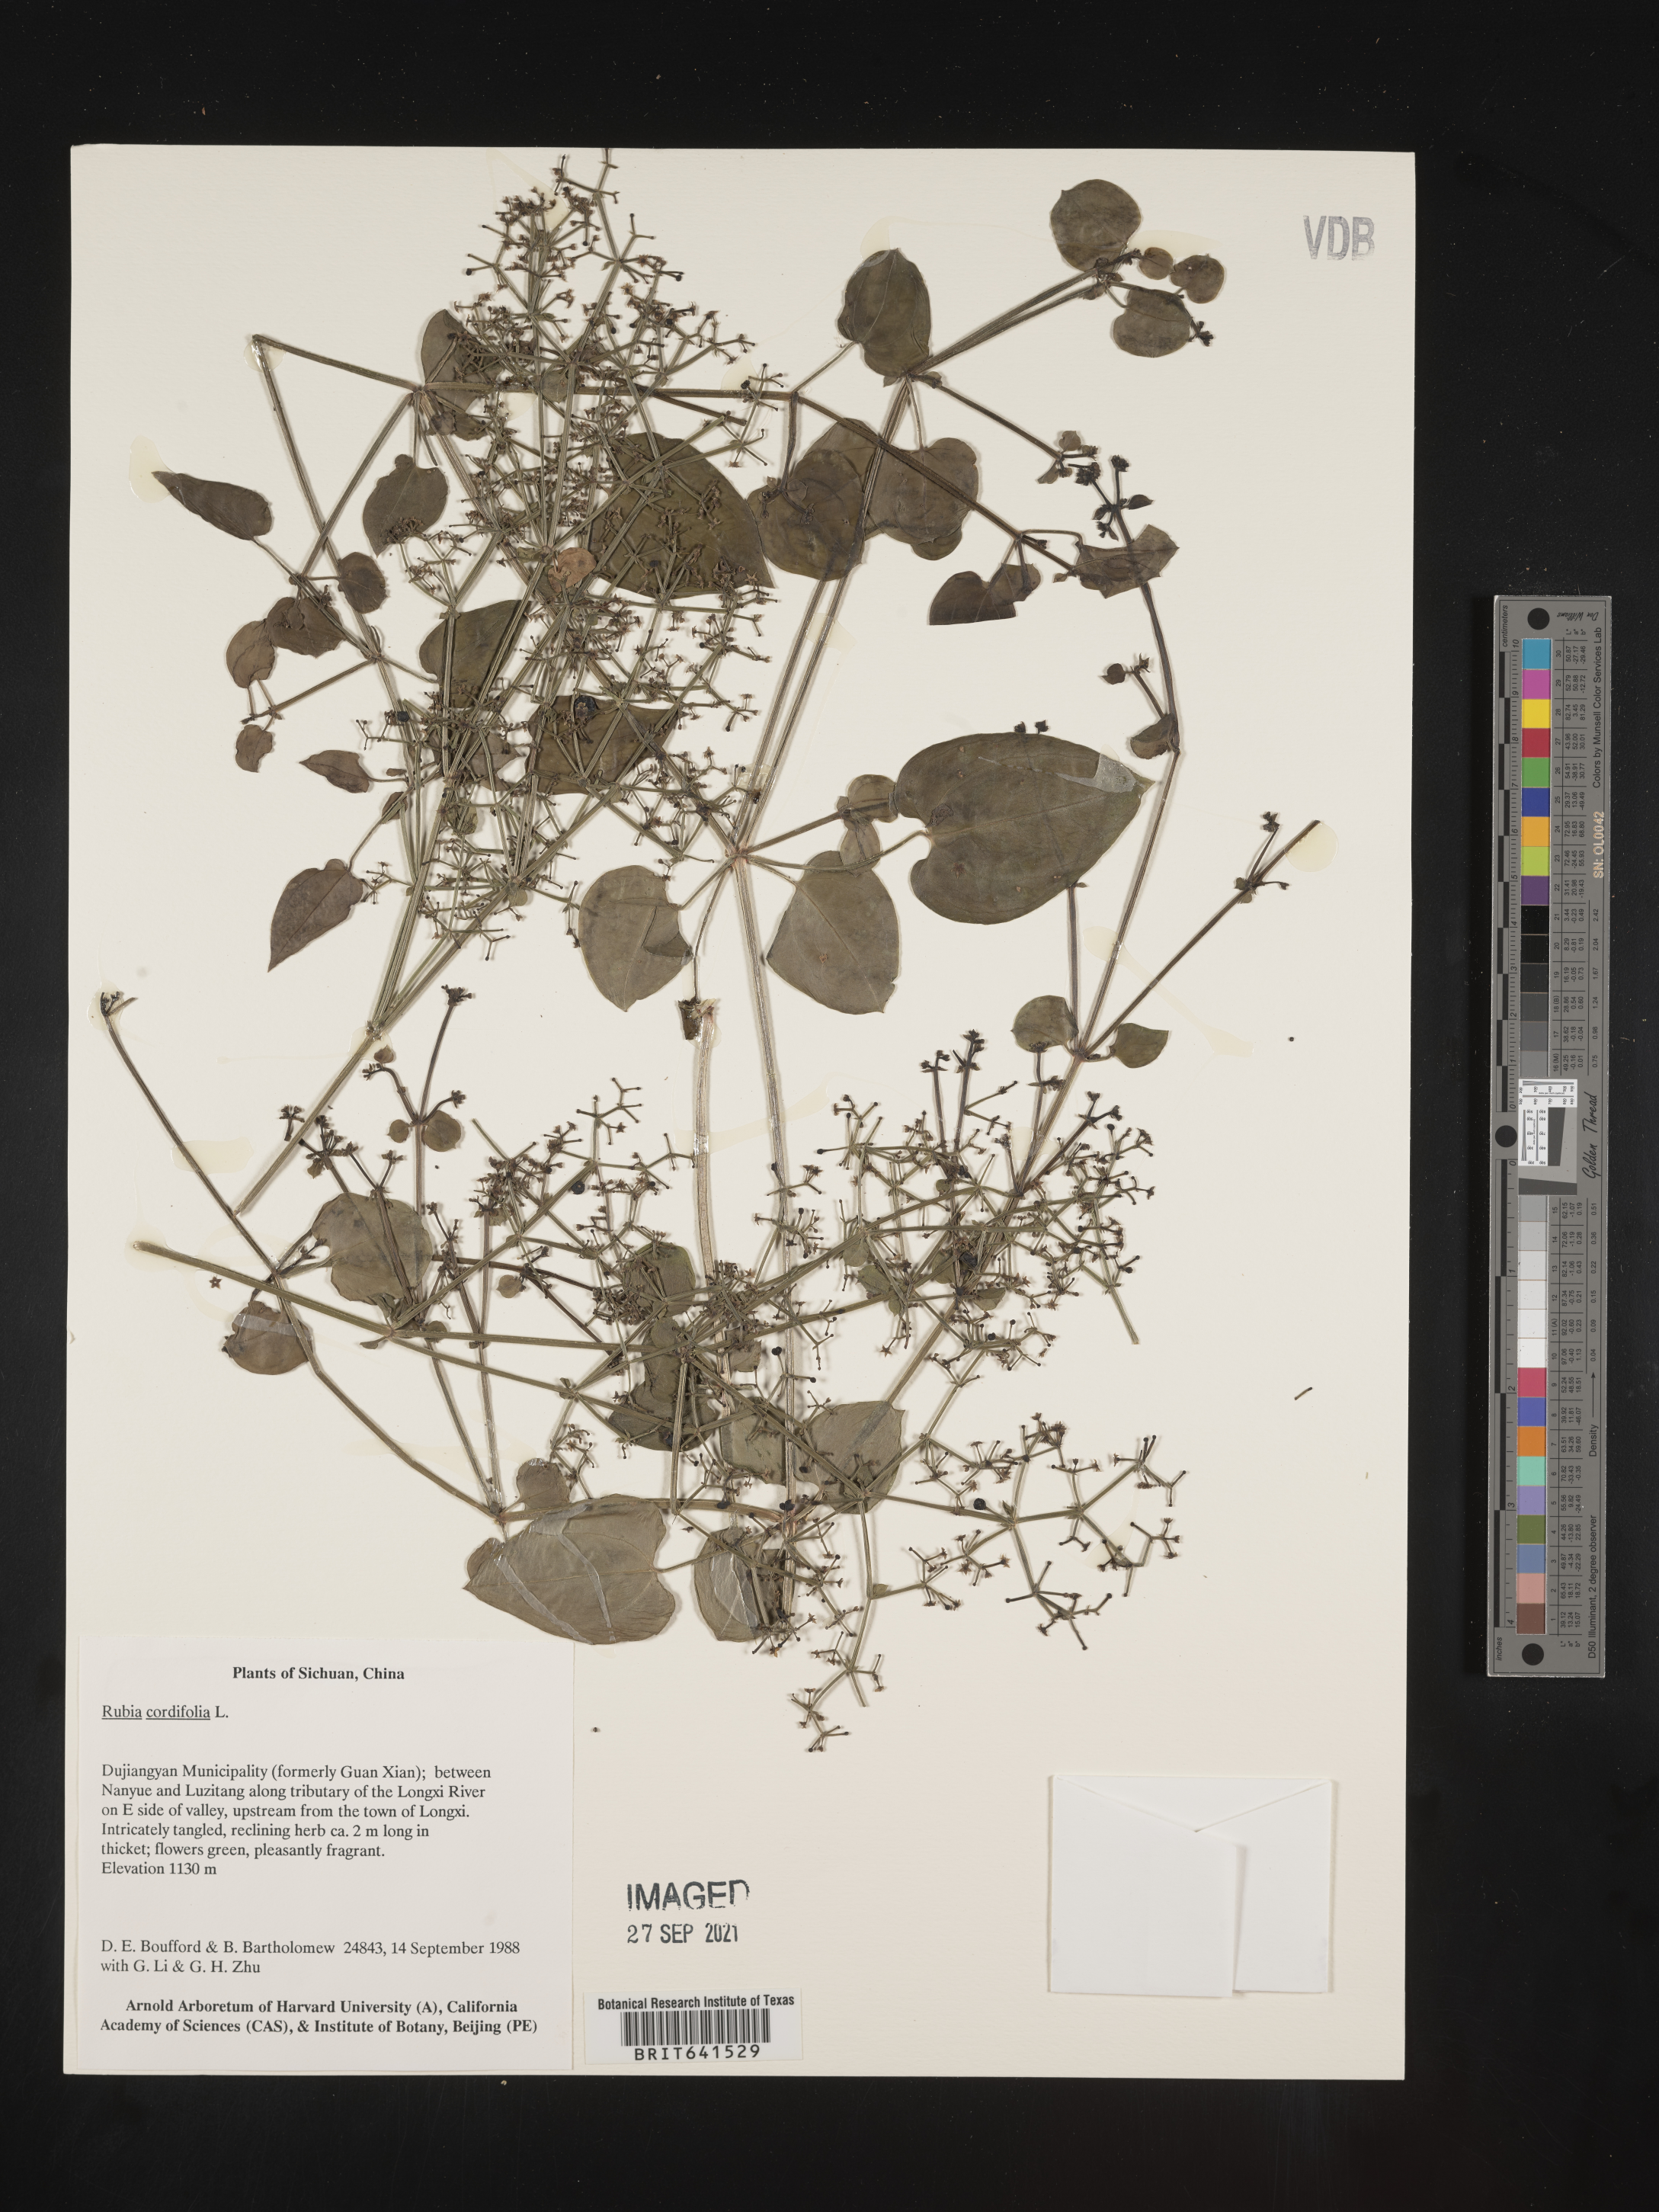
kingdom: Plantae
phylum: Tracheophyta
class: Magnoliopsida
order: Gentianales
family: Rubiaceae
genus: Rubia
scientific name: Rubia cordifolia
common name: Indian madder
